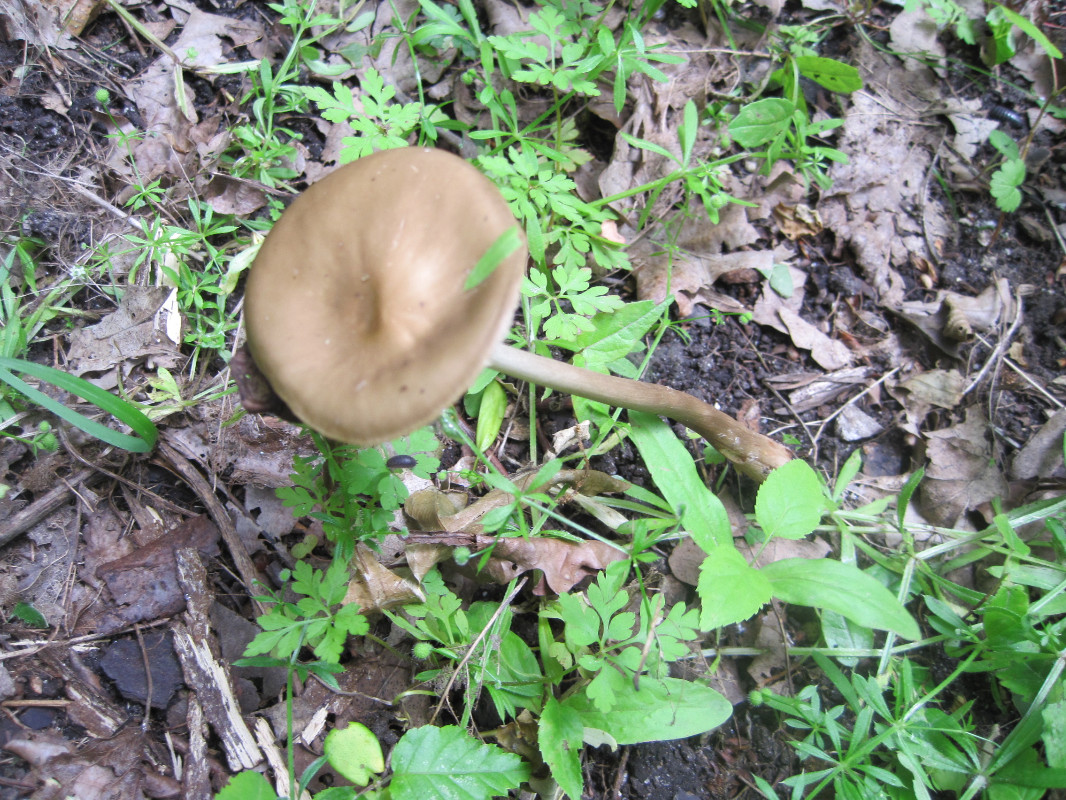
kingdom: Fungi
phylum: Basidiomycota
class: Agaricomycetes
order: Agaricales
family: Physalacriaceae
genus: Hymenopellis
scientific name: Hymenopellis radicata
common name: almindelig pælerodshat
